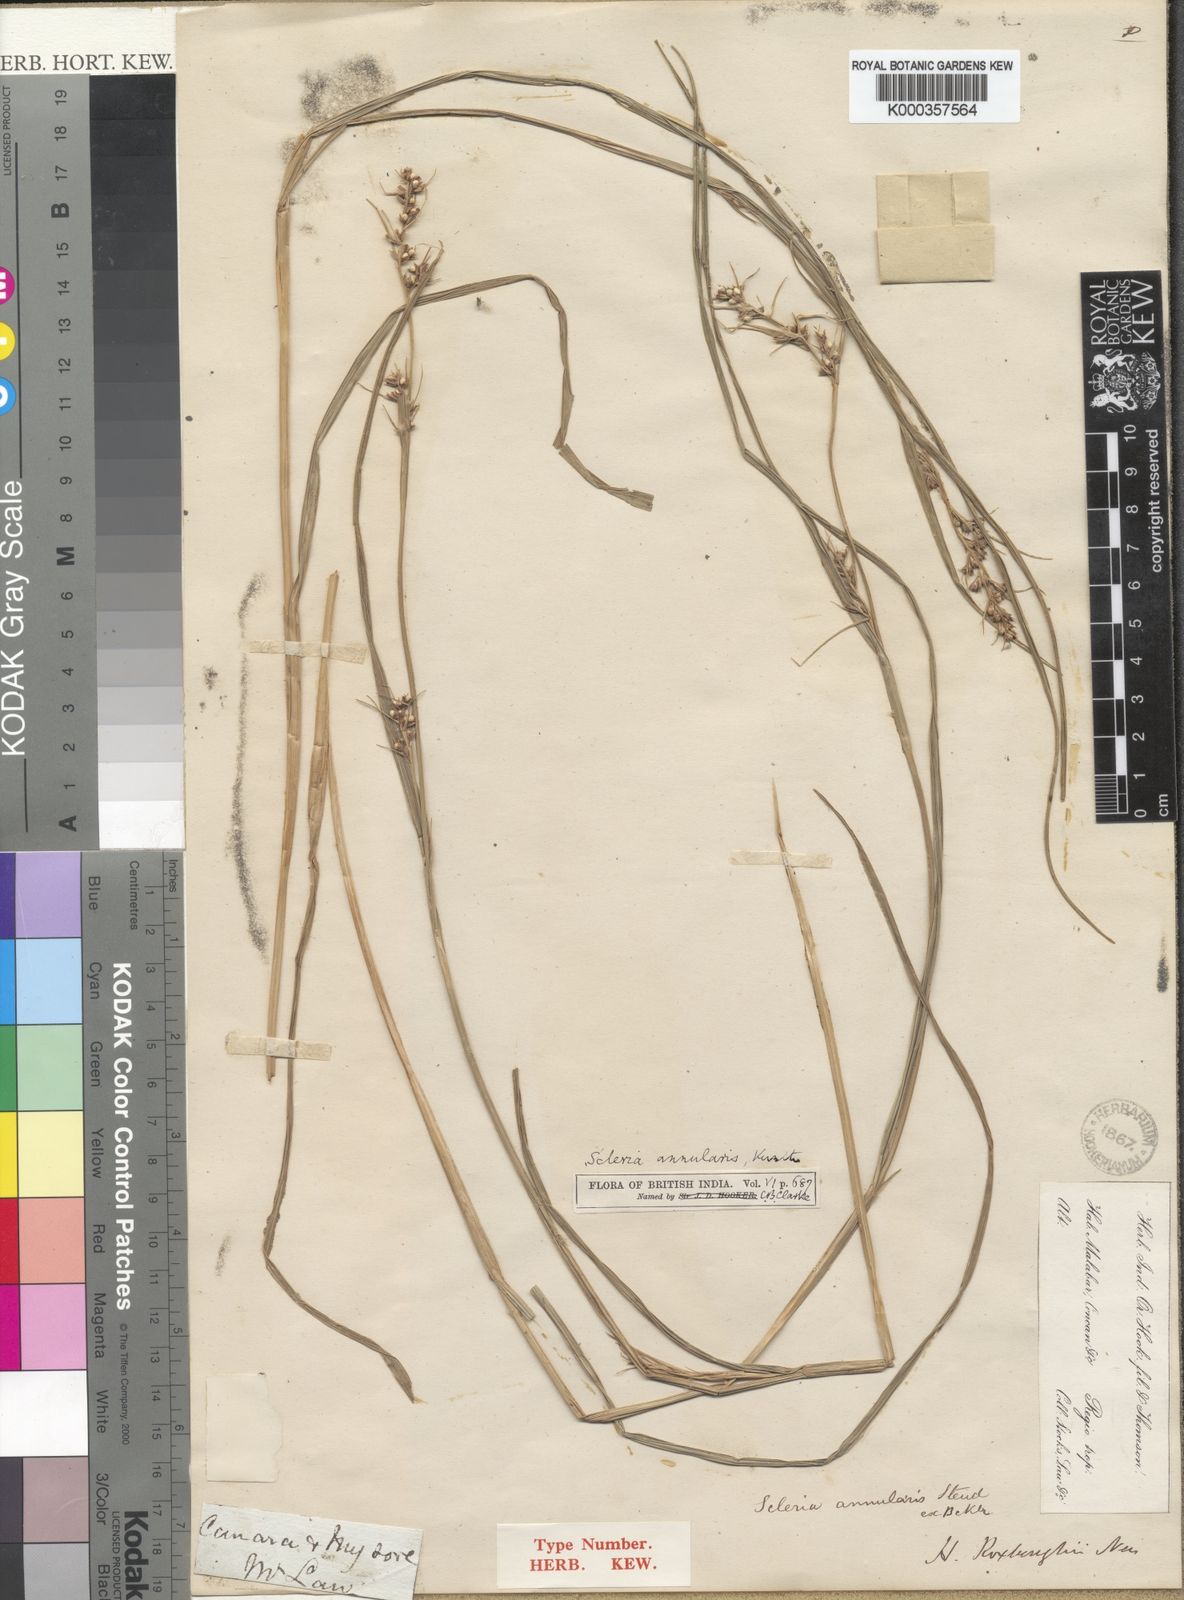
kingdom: Plantae
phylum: Tracheophyta
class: Liliopsida
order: Poales
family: Cyperaceae
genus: Scleria
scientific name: Scleria annularis
